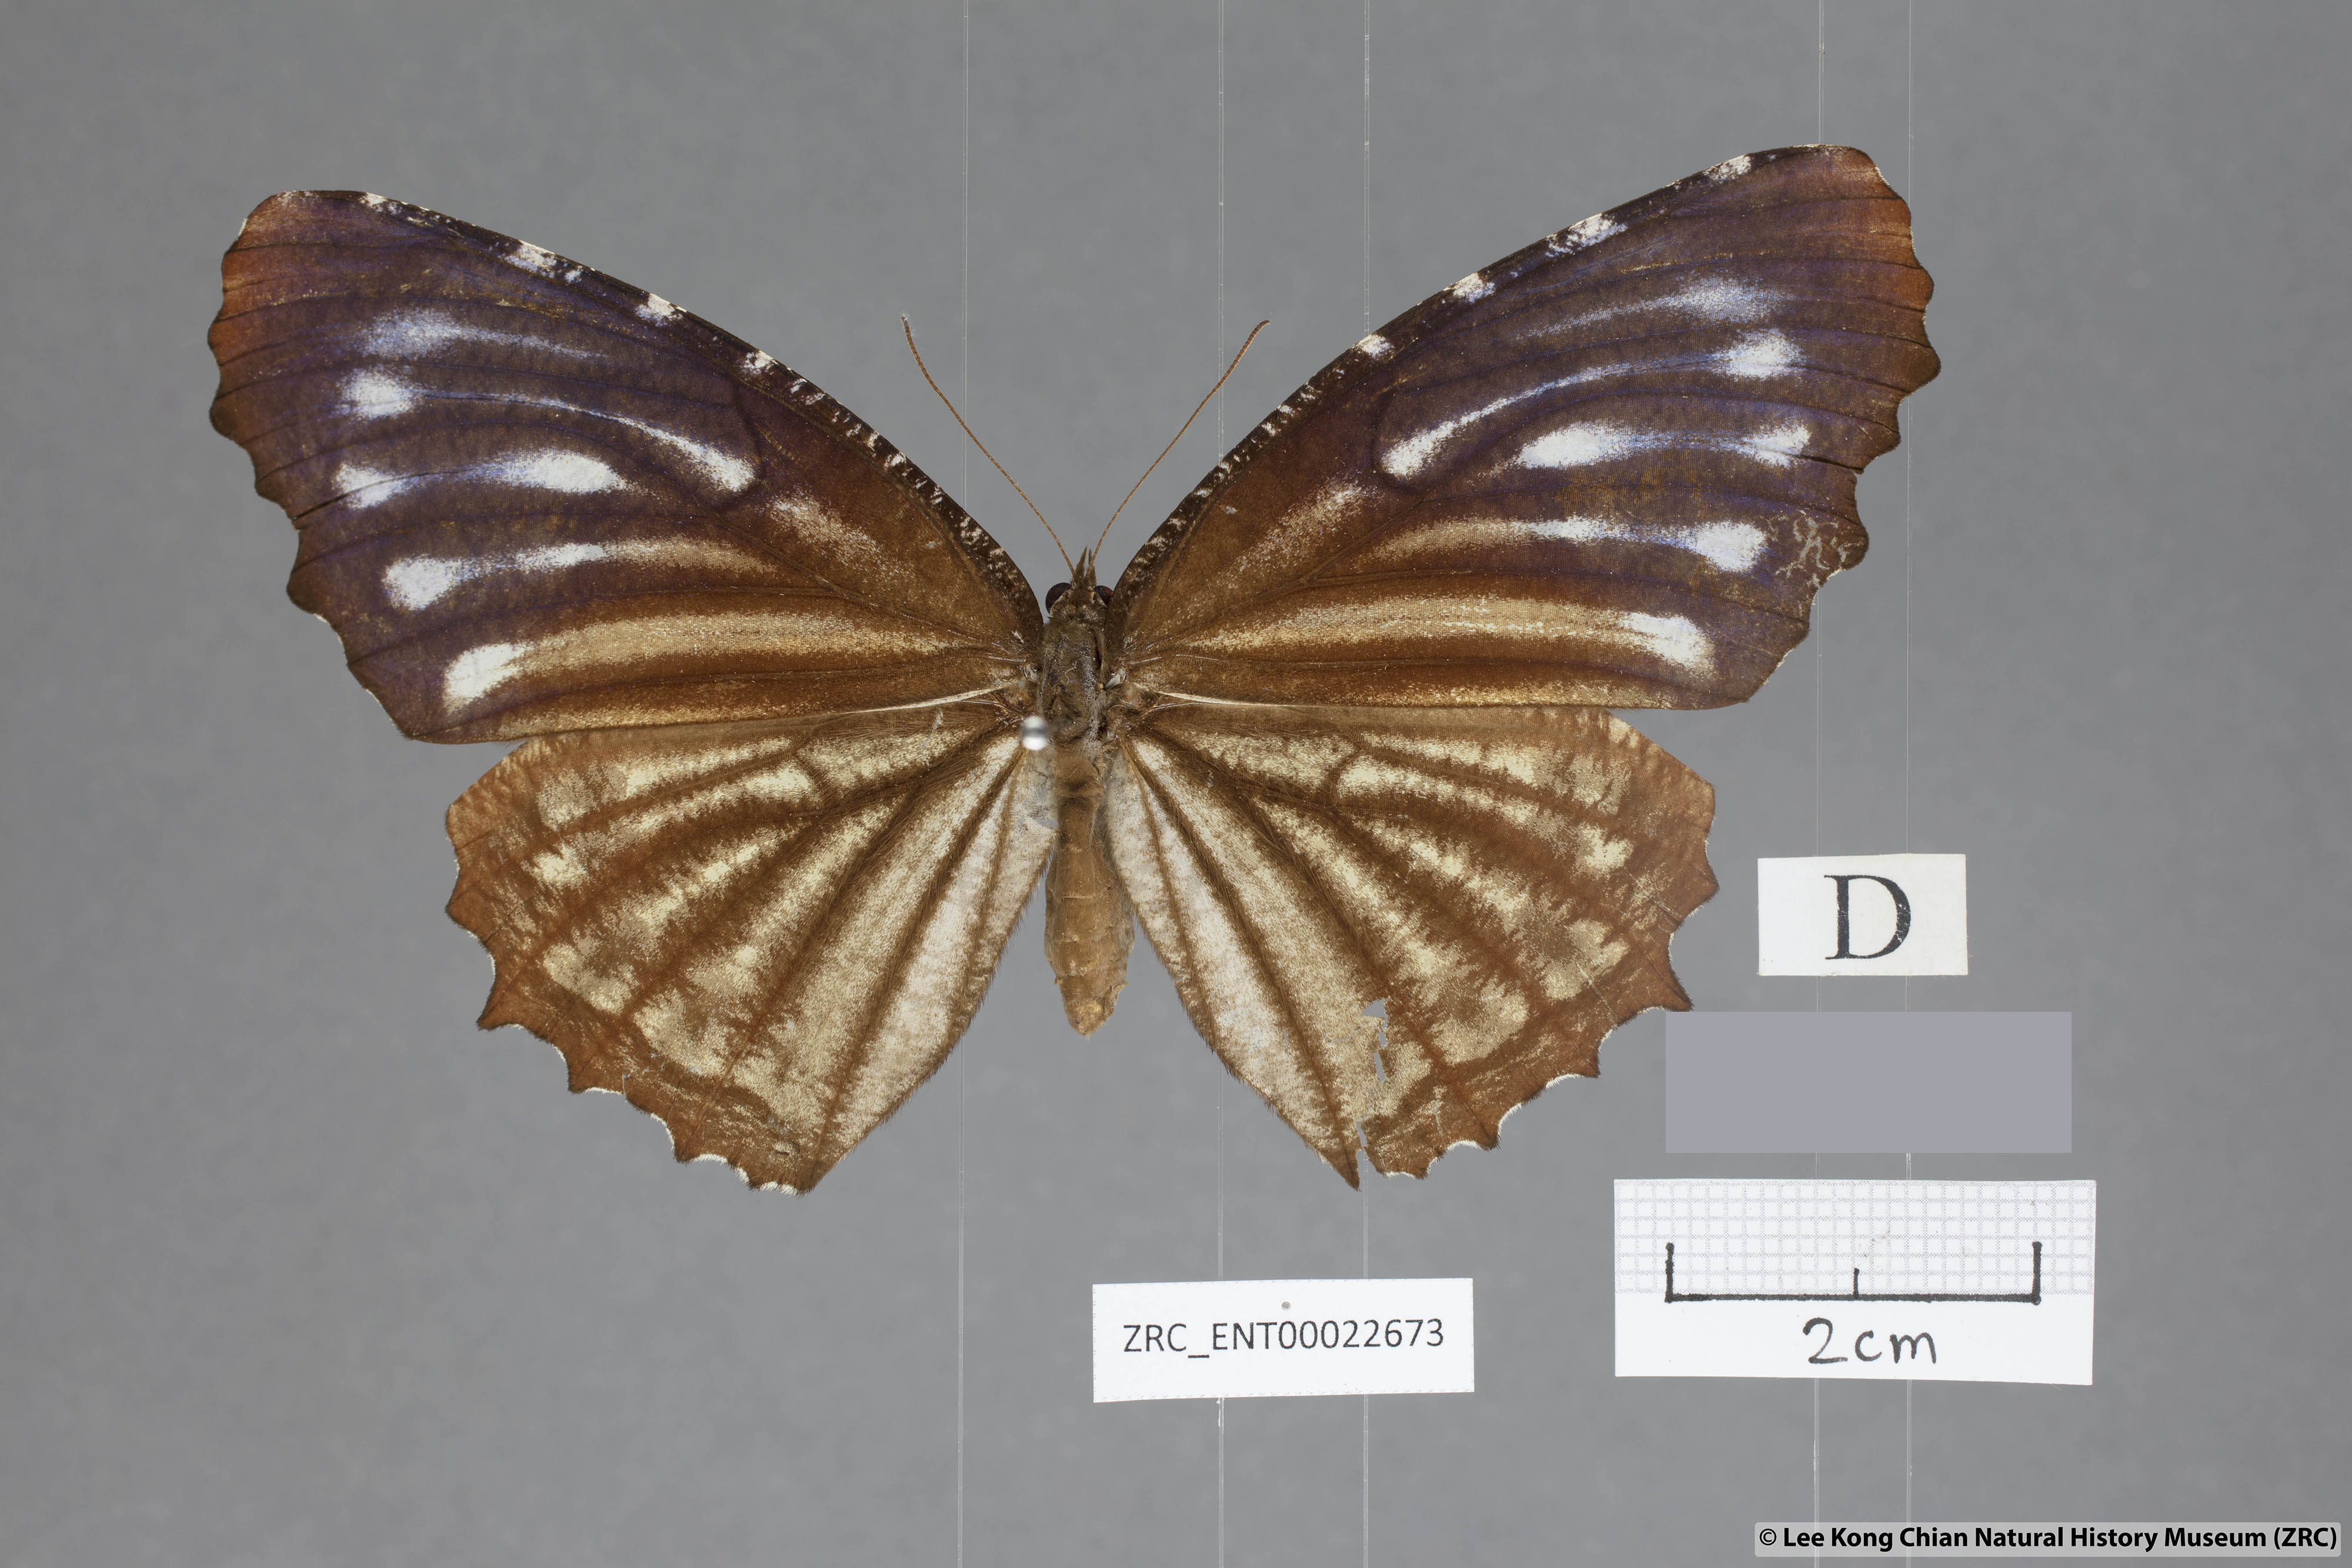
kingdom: Animalia
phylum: Arthropoda
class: Insecta
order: Lepidoptera
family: Nymphalidae
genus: Elymnias
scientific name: Elymnias casiphone
